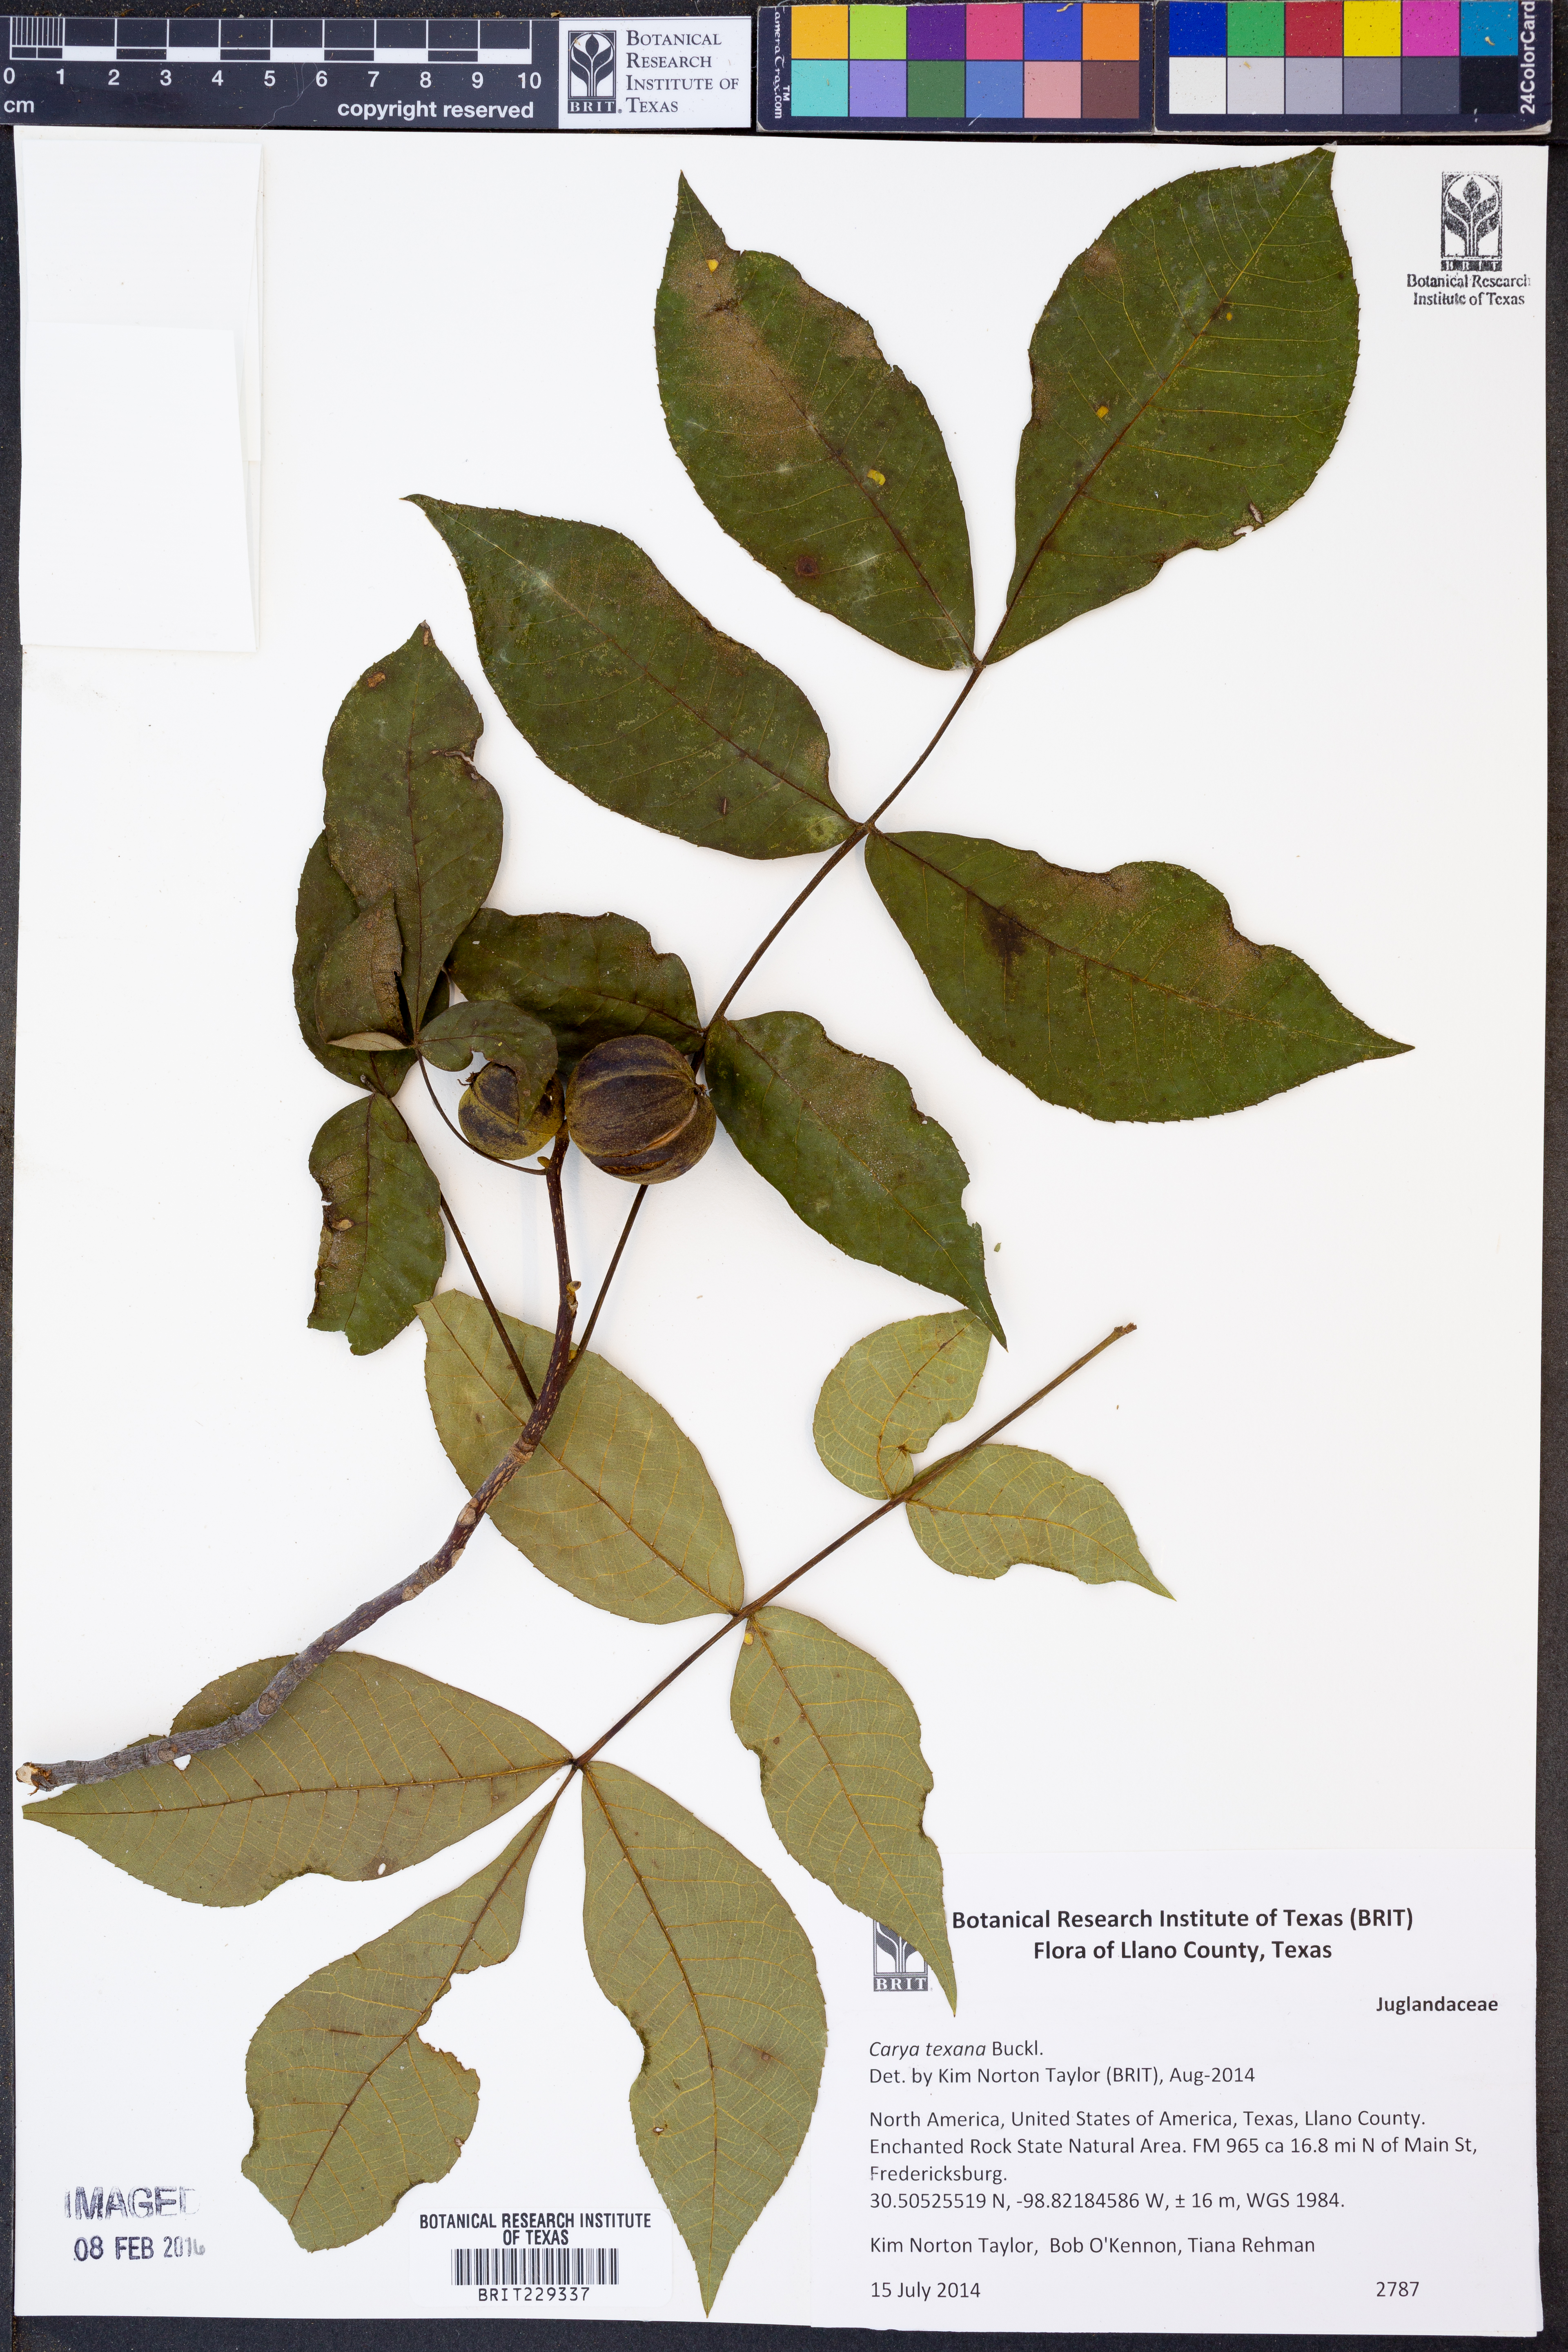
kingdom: Plantae
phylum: Tracheophyta
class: Magnoliopsida
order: Fagales
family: Juglandaceae
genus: Carya
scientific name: Carya texana
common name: Black hickory
